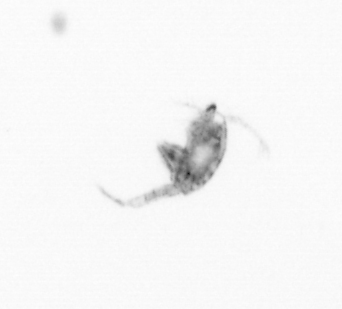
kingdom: Animalia
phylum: Arthropoda
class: Copepoda
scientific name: Copepoda
